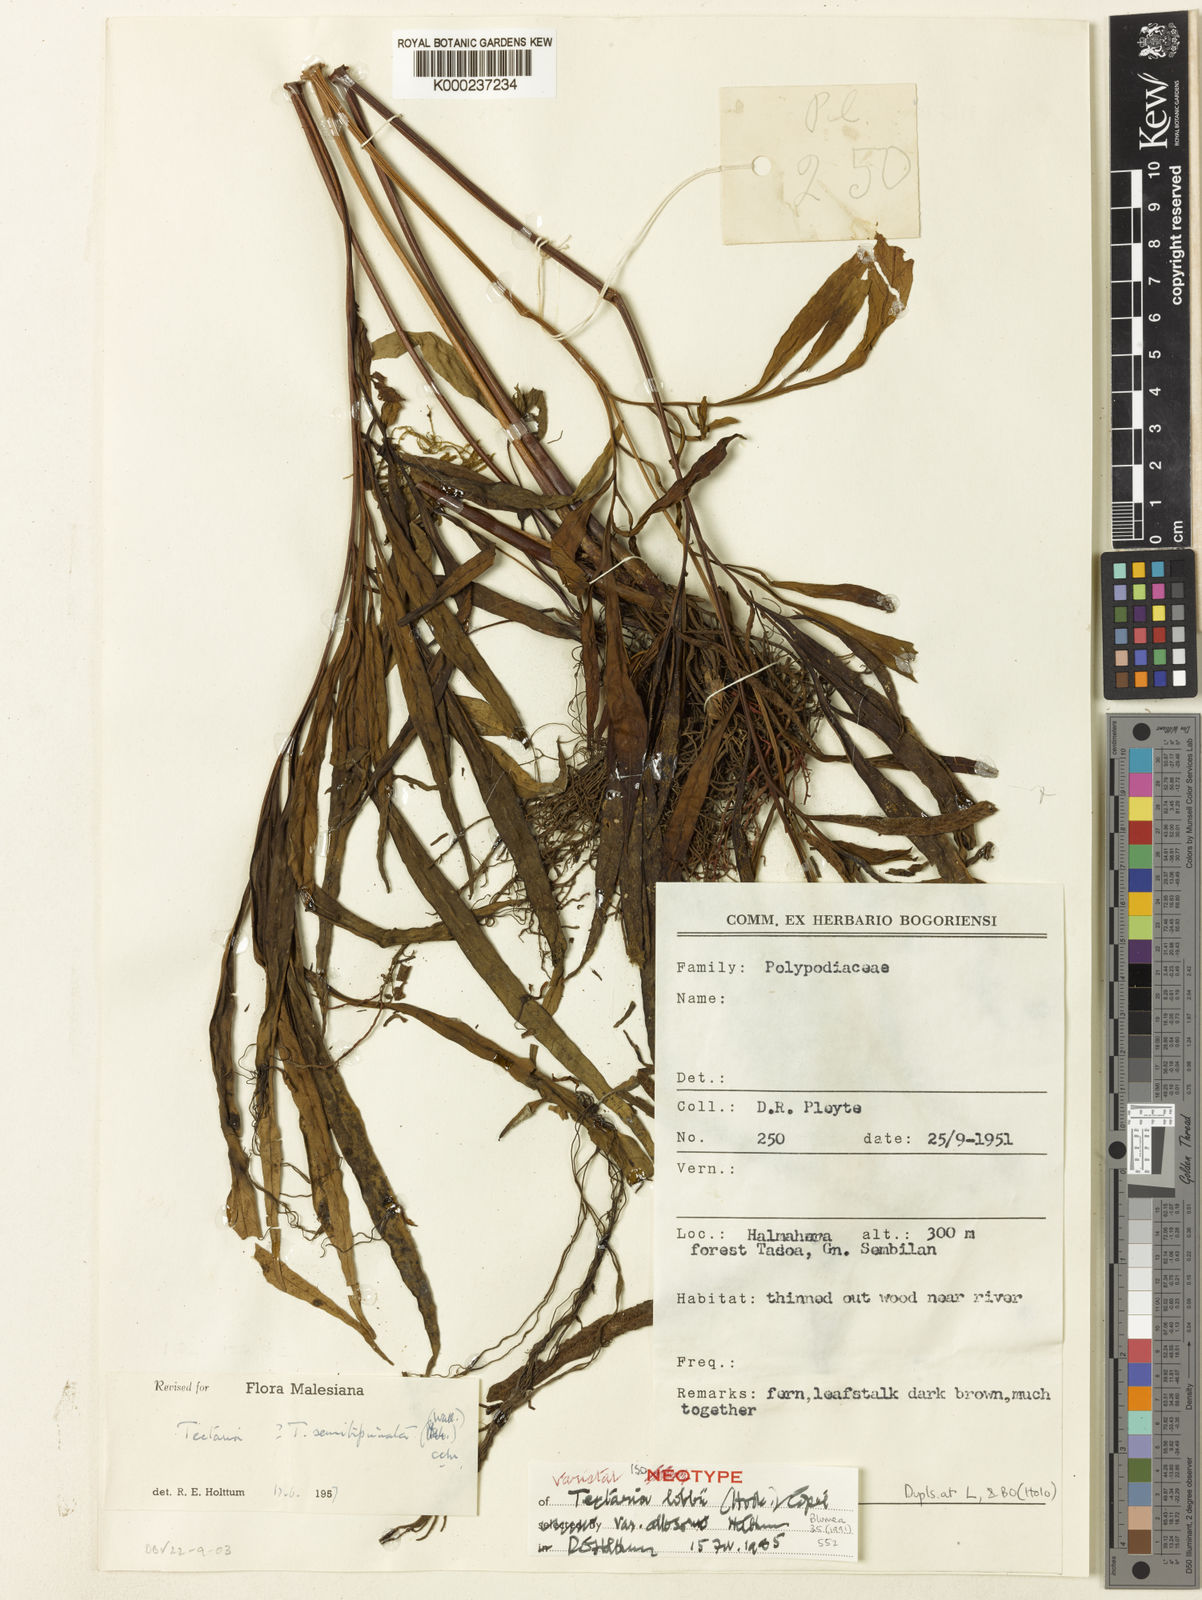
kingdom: Plantae
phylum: Tracheophyta
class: Polypodiopsida
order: Polypodiales
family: Tectariaceae
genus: Tectaria
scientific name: Tectaria lobbii
